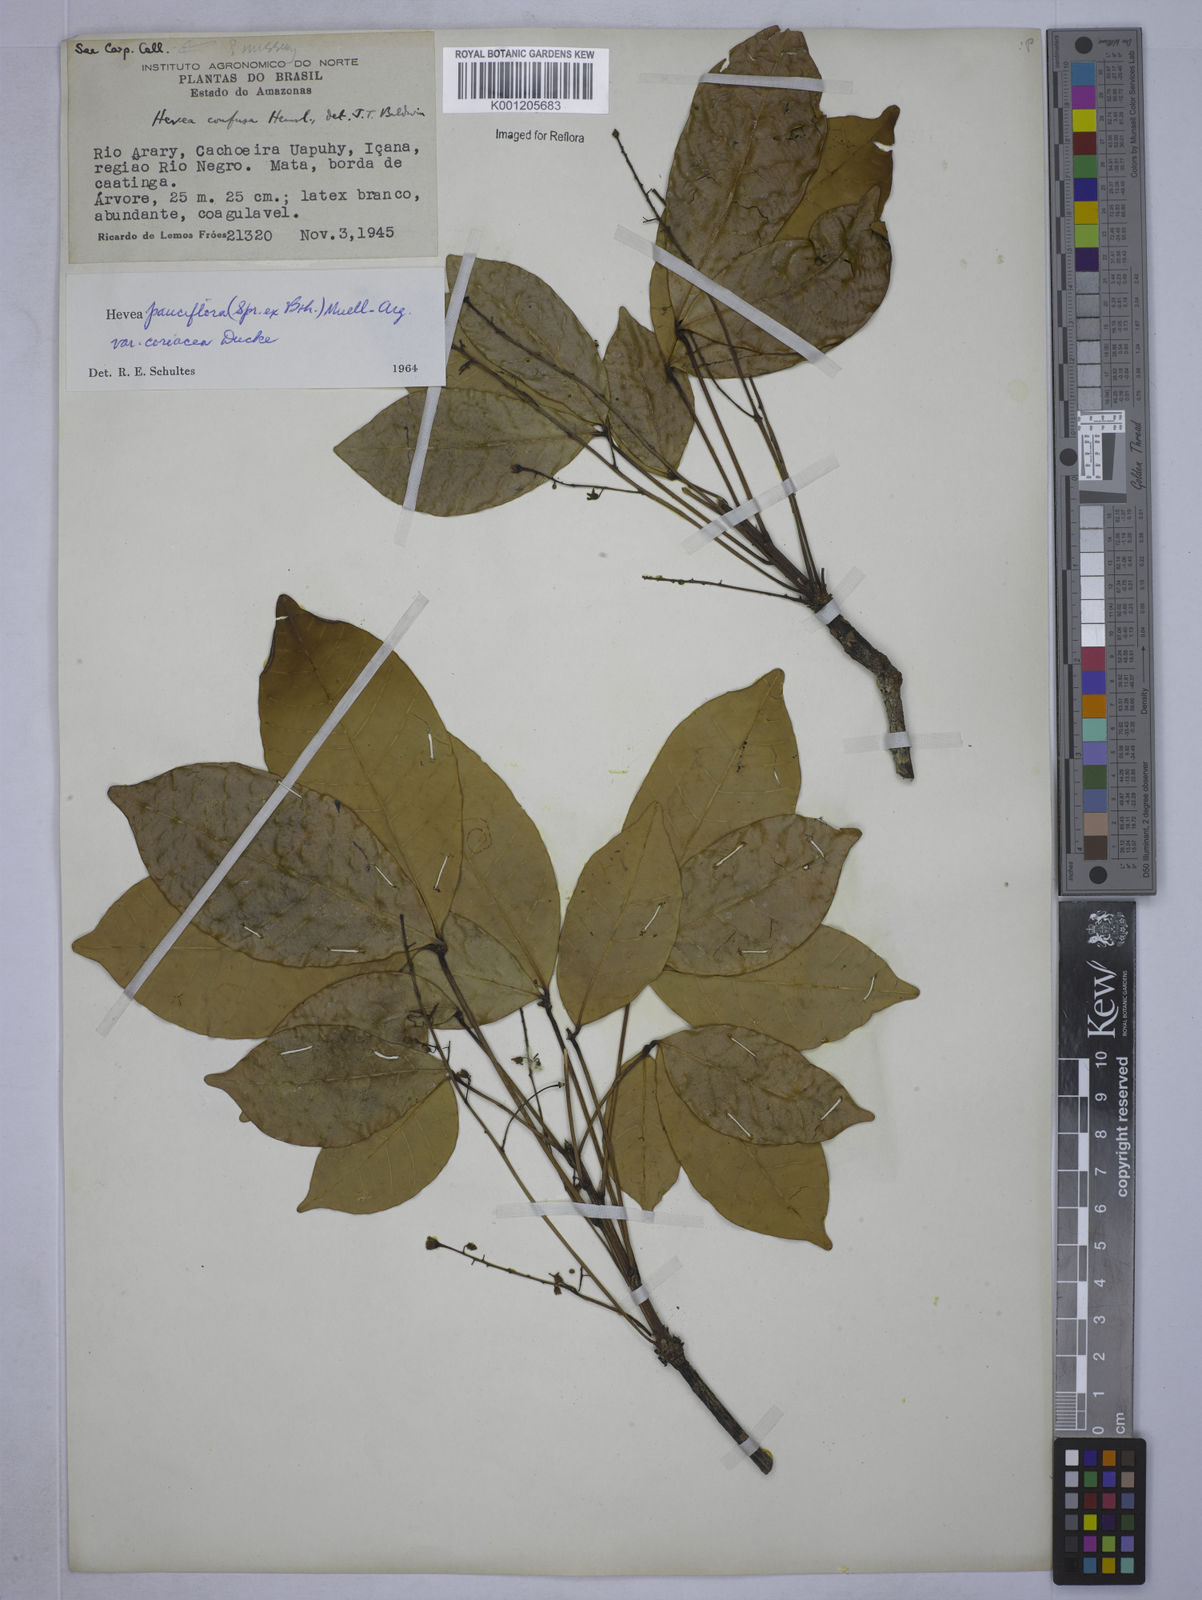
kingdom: Plantae
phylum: Tracheophyta
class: Magnoliopsida
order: Malpighiales
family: Euphorbiaceae
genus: Hevea
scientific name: Hevea pauciflora
